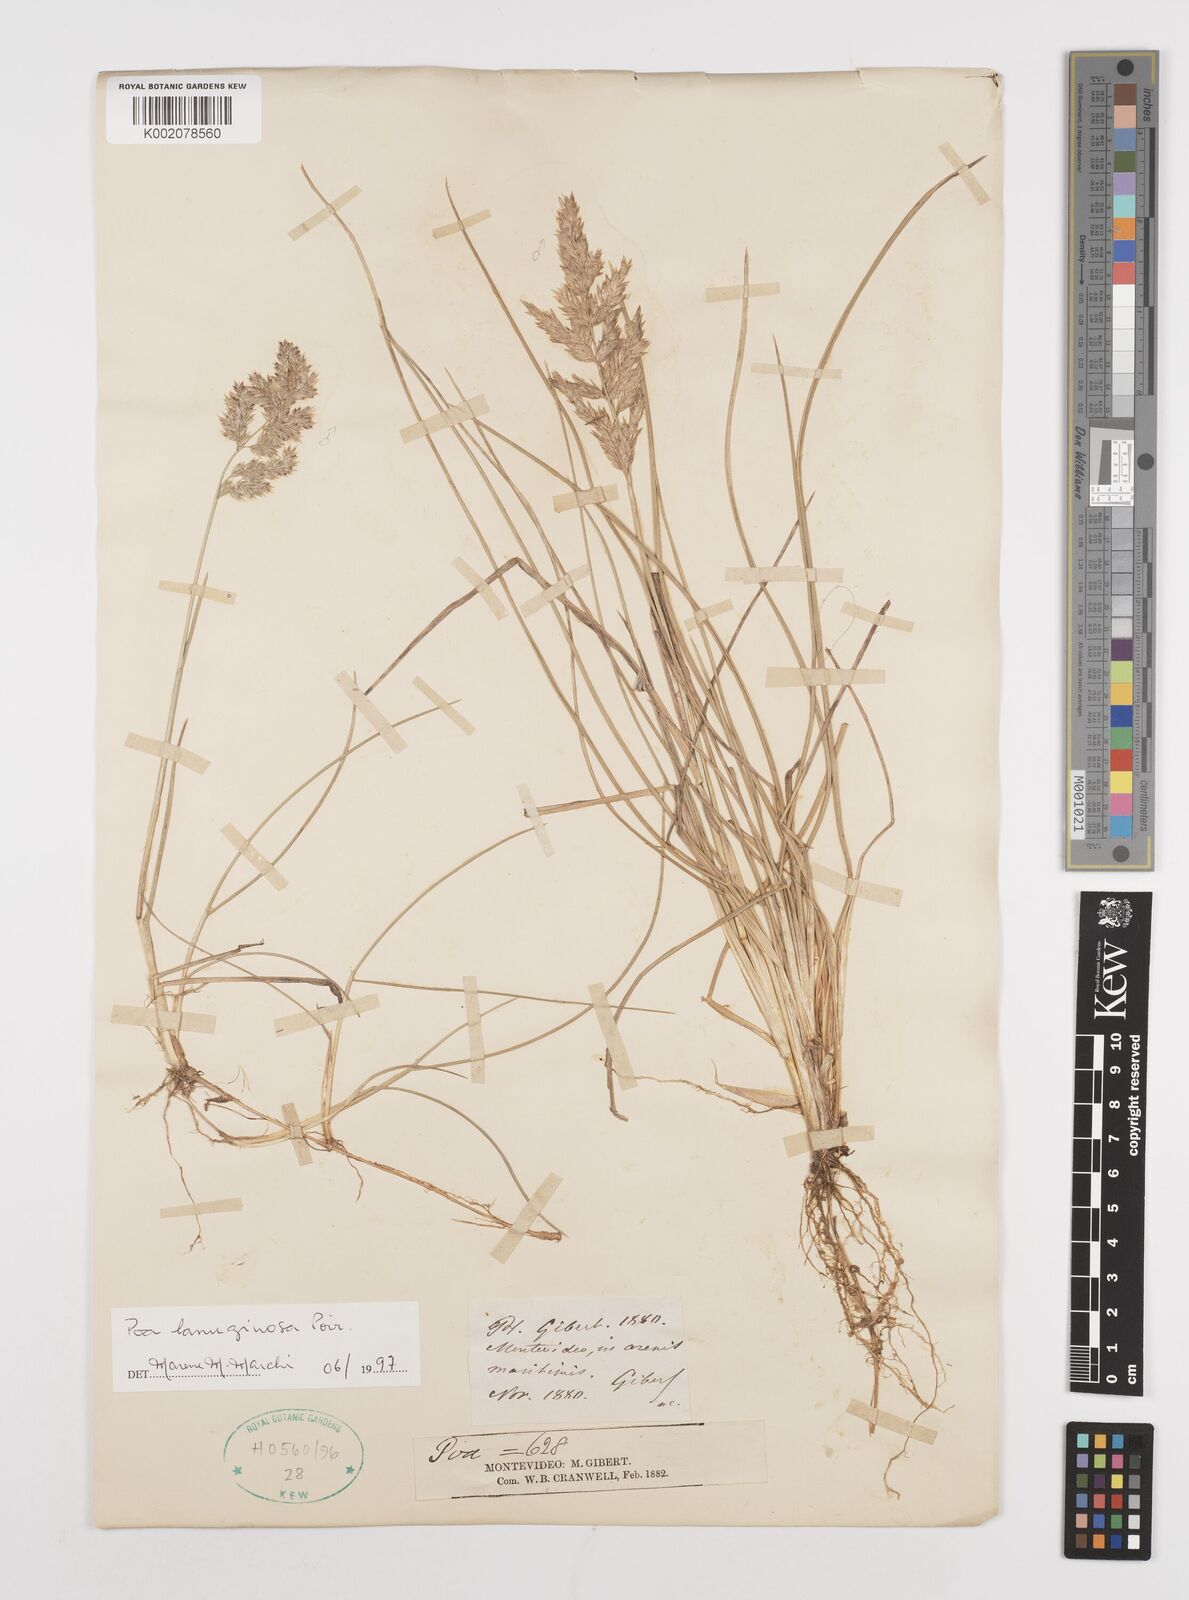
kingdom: Plantae
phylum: Tracheophyta
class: Liliopsida
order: Poales
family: Poaceae
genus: Poa
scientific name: Poa lanuginosa
